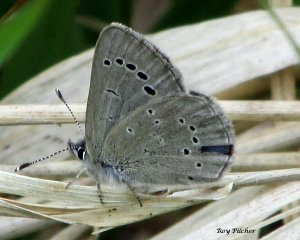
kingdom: Animalia
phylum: Arthropoda
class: Insecta
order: Lepidoptera
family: Lycaenidae
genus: Glaucopsyche
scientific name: Glaucopsyche lygdamus
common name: Silvery Blue
